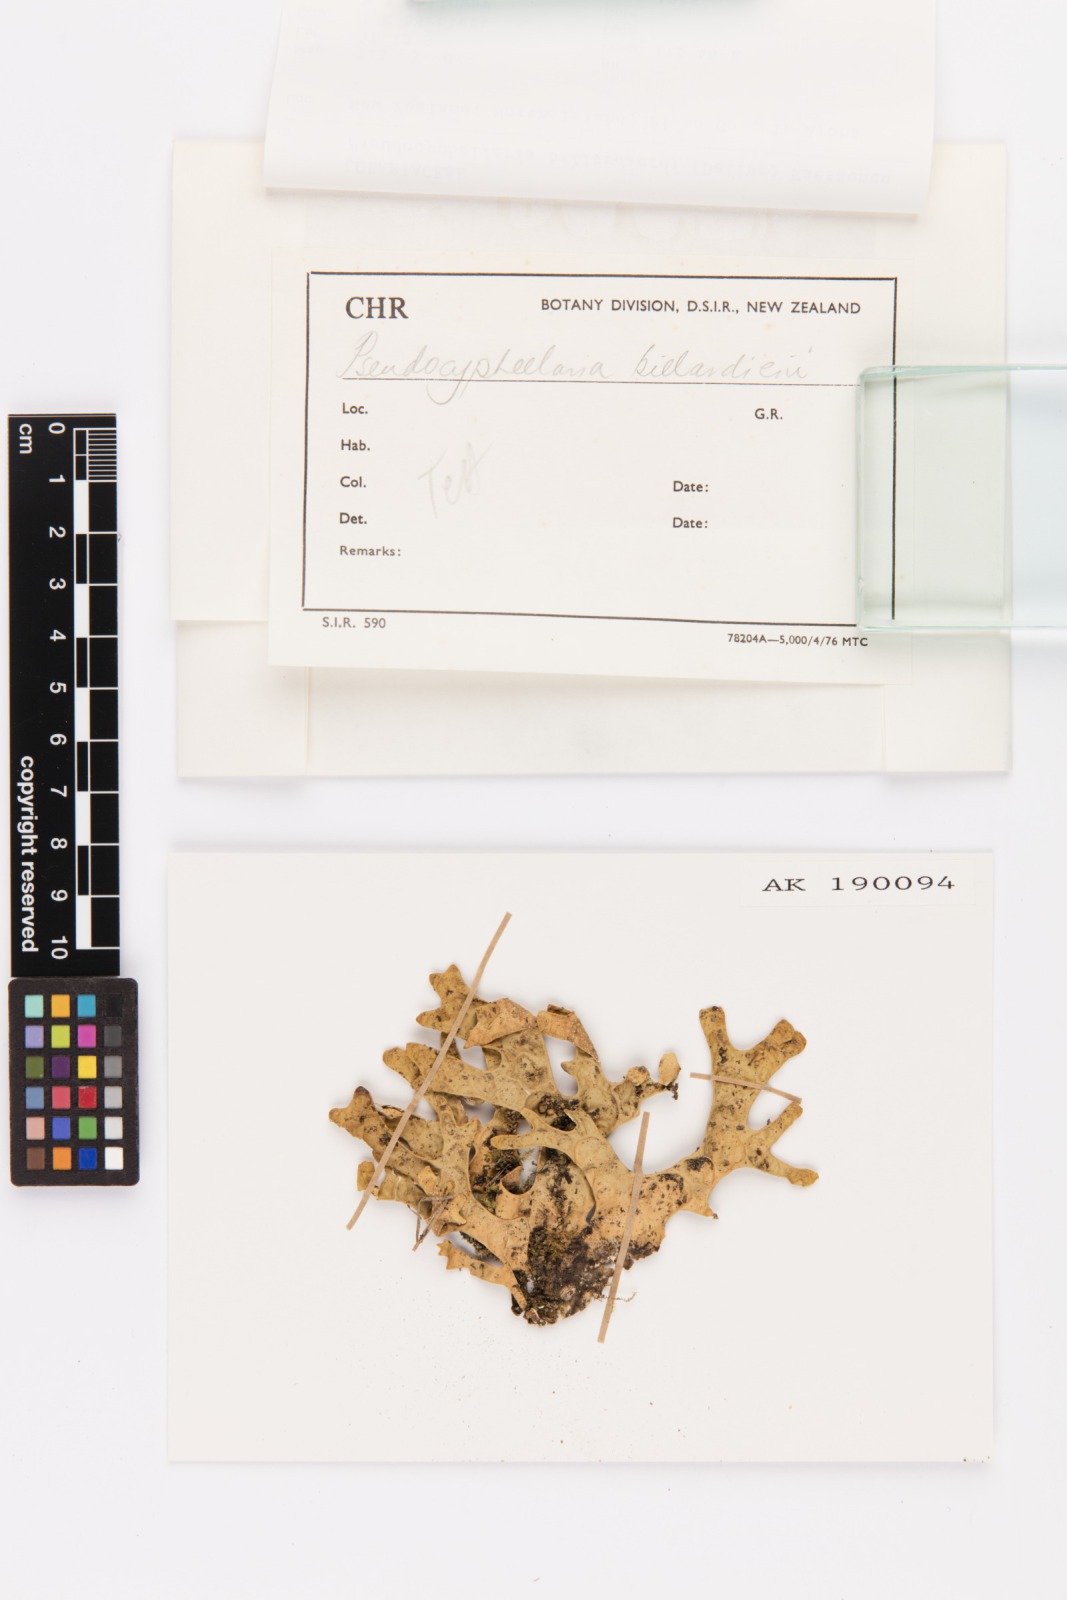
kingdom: Fungi
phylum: Ascomycota
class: Lecanoromycetes
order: Peltigerales
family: Lobariaceae
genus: Pseudocyphellaria
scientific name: Pseudocyphellaria billardierei
